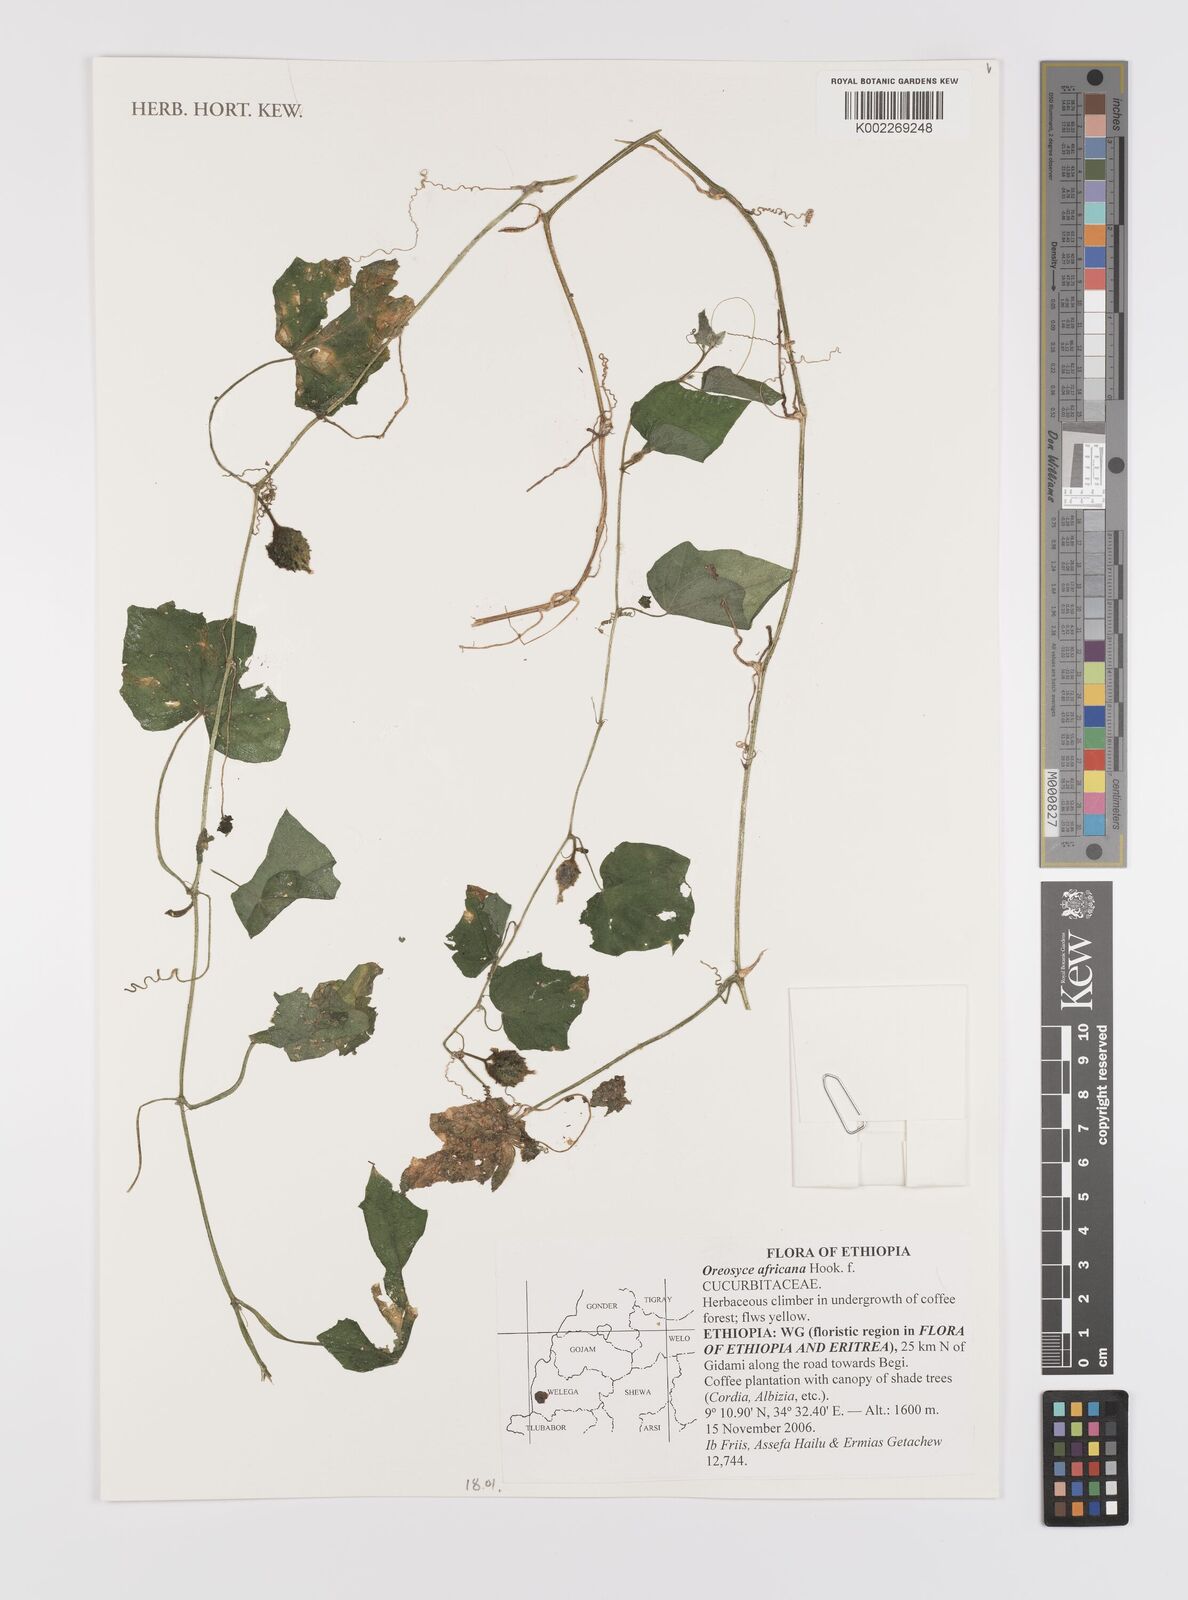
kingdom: Plantae
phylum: Tracheophyta
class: Magnoliopsida
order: Cucurbitales
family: Cucurbitaceae
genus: Cucumis
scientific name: Cucumis oreosyce
